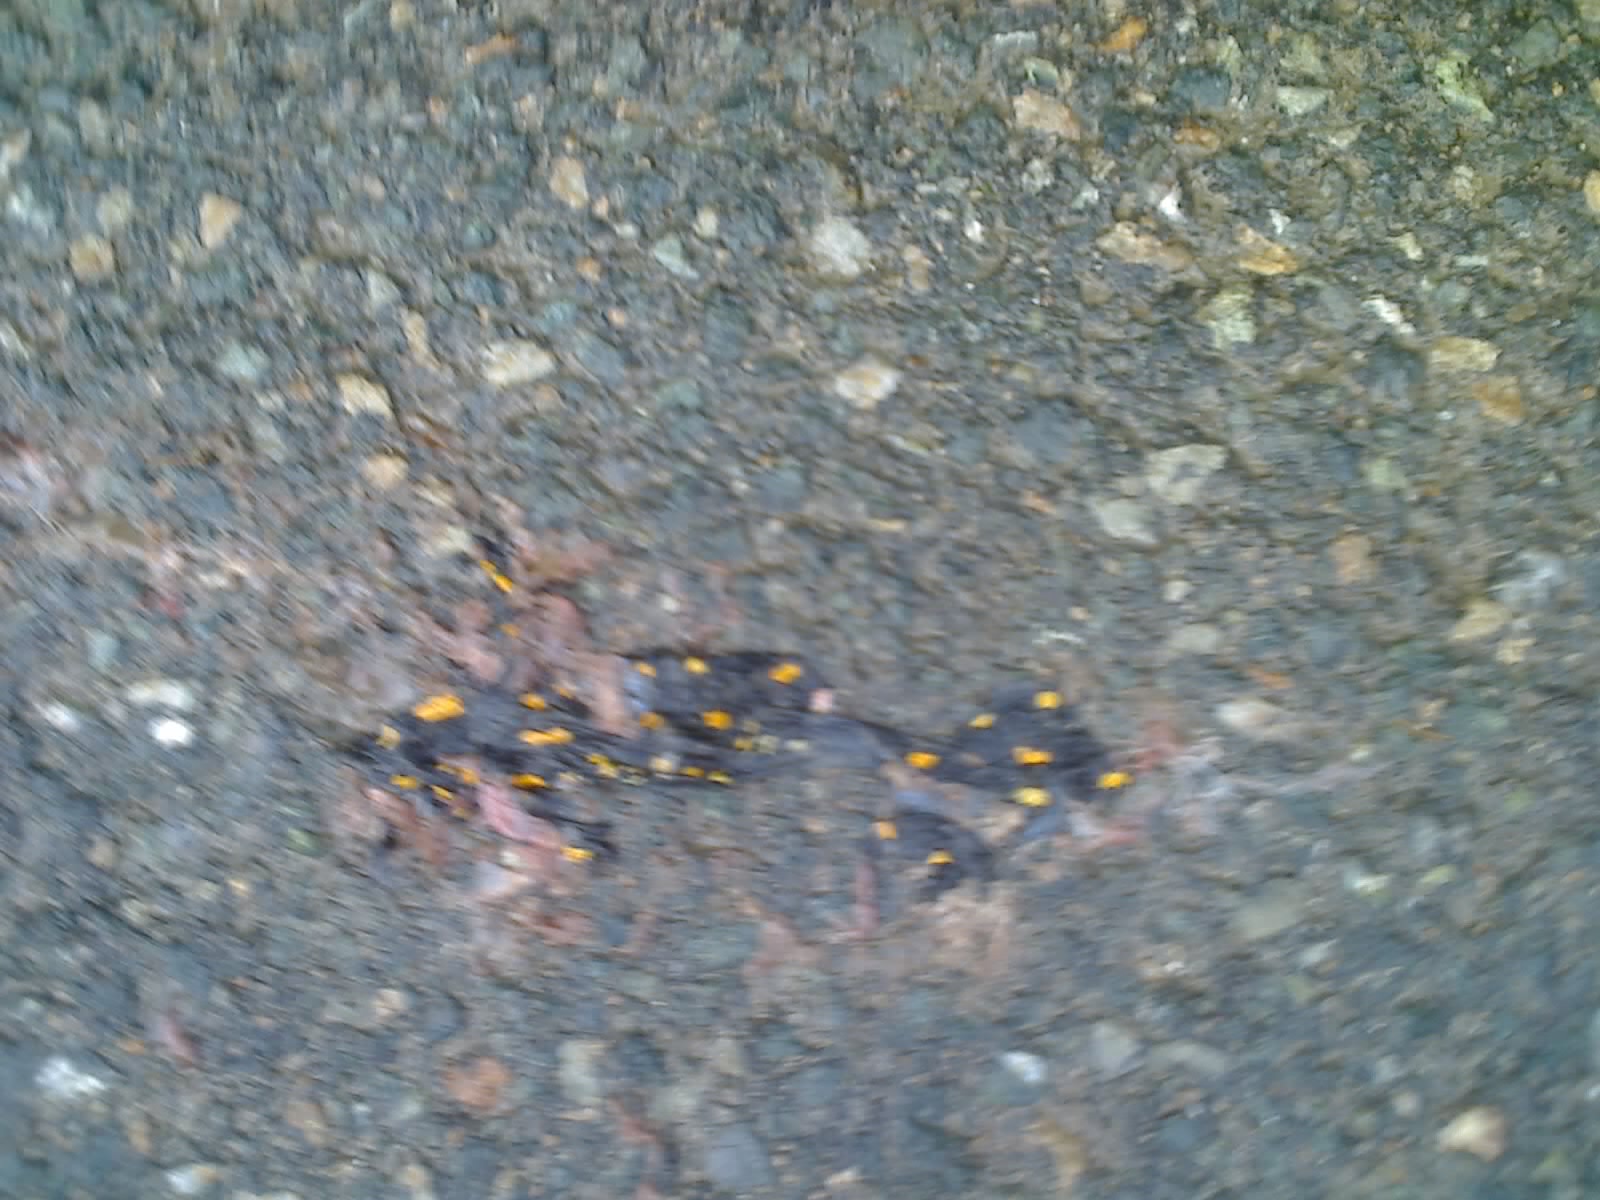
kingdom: Animalia
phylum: Chordata
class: Amphibia
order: Caudata
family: Salamandridae
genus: Salamandra
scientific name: Salamandra salamandra
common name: Fire salamander
